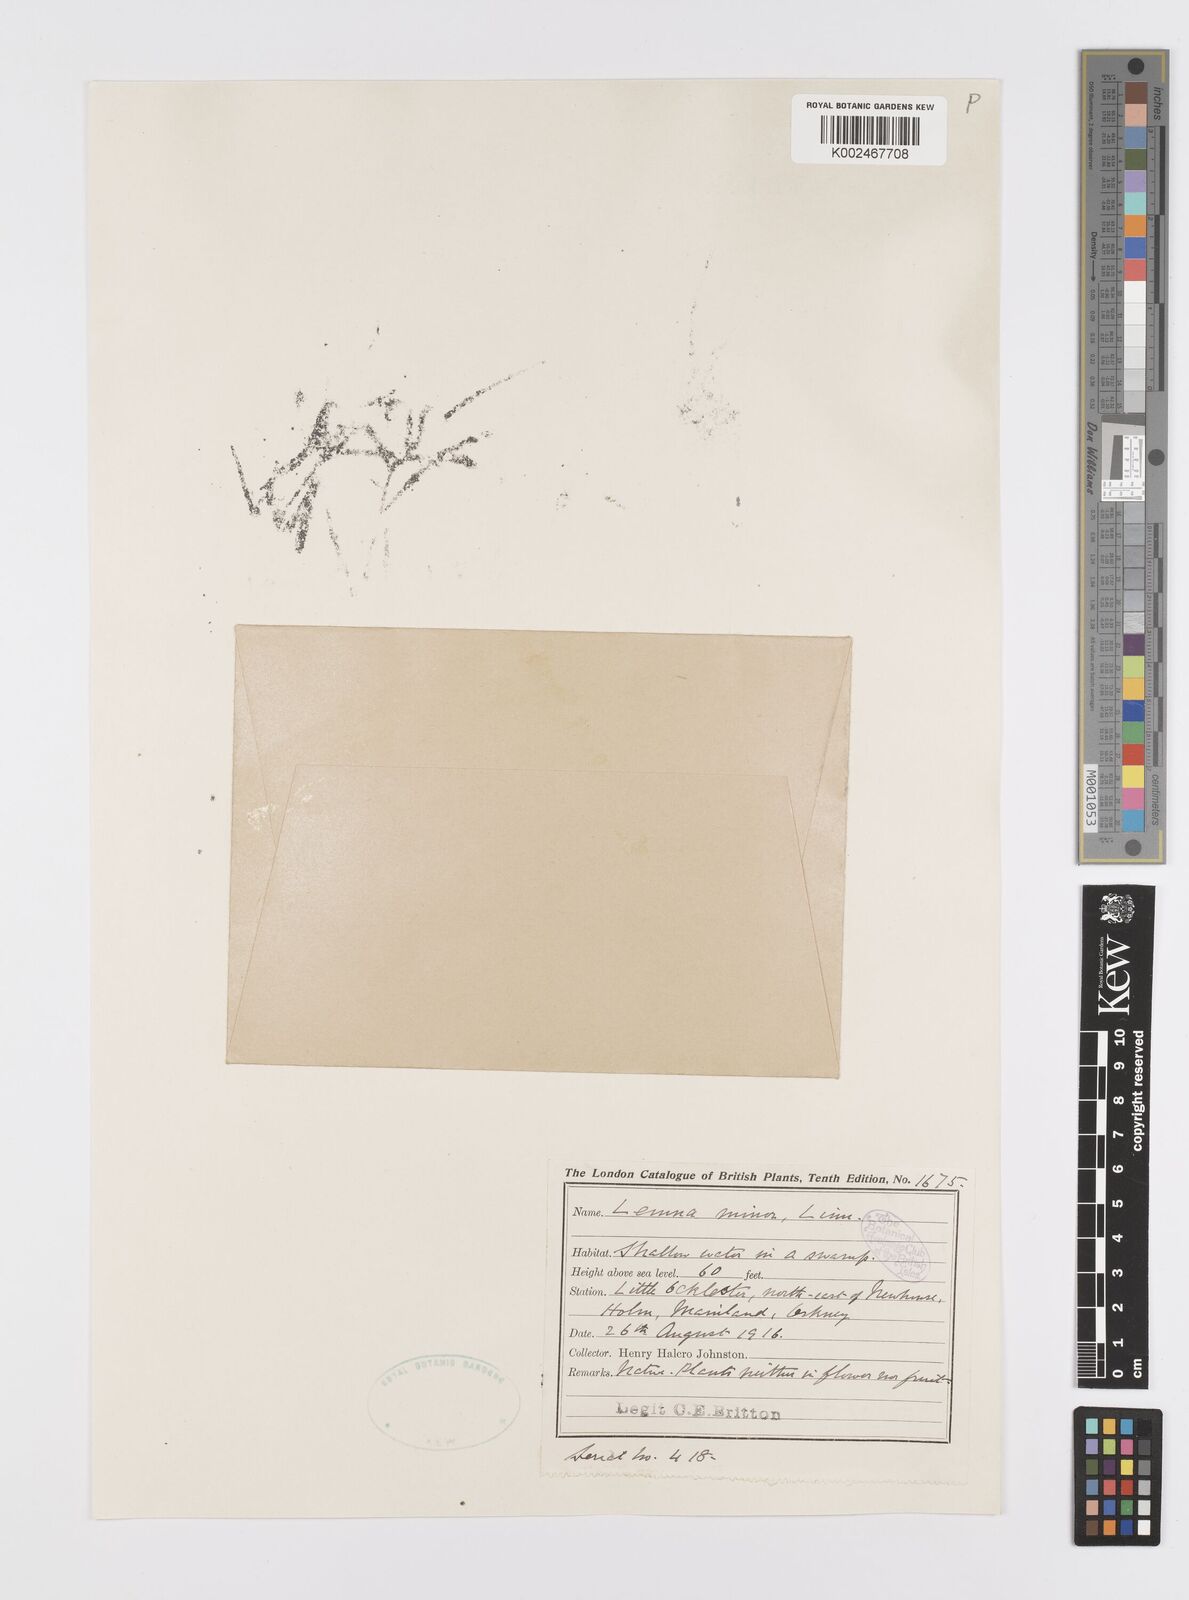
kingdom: Plantae
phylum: Tracheophyta
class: Liliopsida
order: Alismatales
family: Araceae
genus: Lemna
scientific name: Lemna minor
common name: Common duckweed
